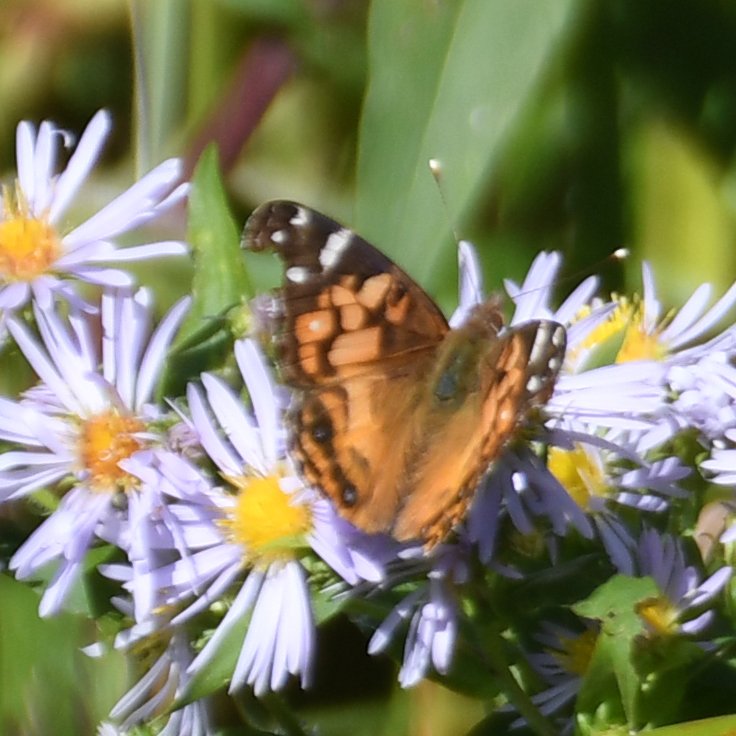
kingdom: Animalia
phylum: Arthropoda
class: Insecta
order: Lepidoptera
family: Nymphalidae
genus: Vanessa
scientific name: Vanessa virginiensis
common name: American Lady
